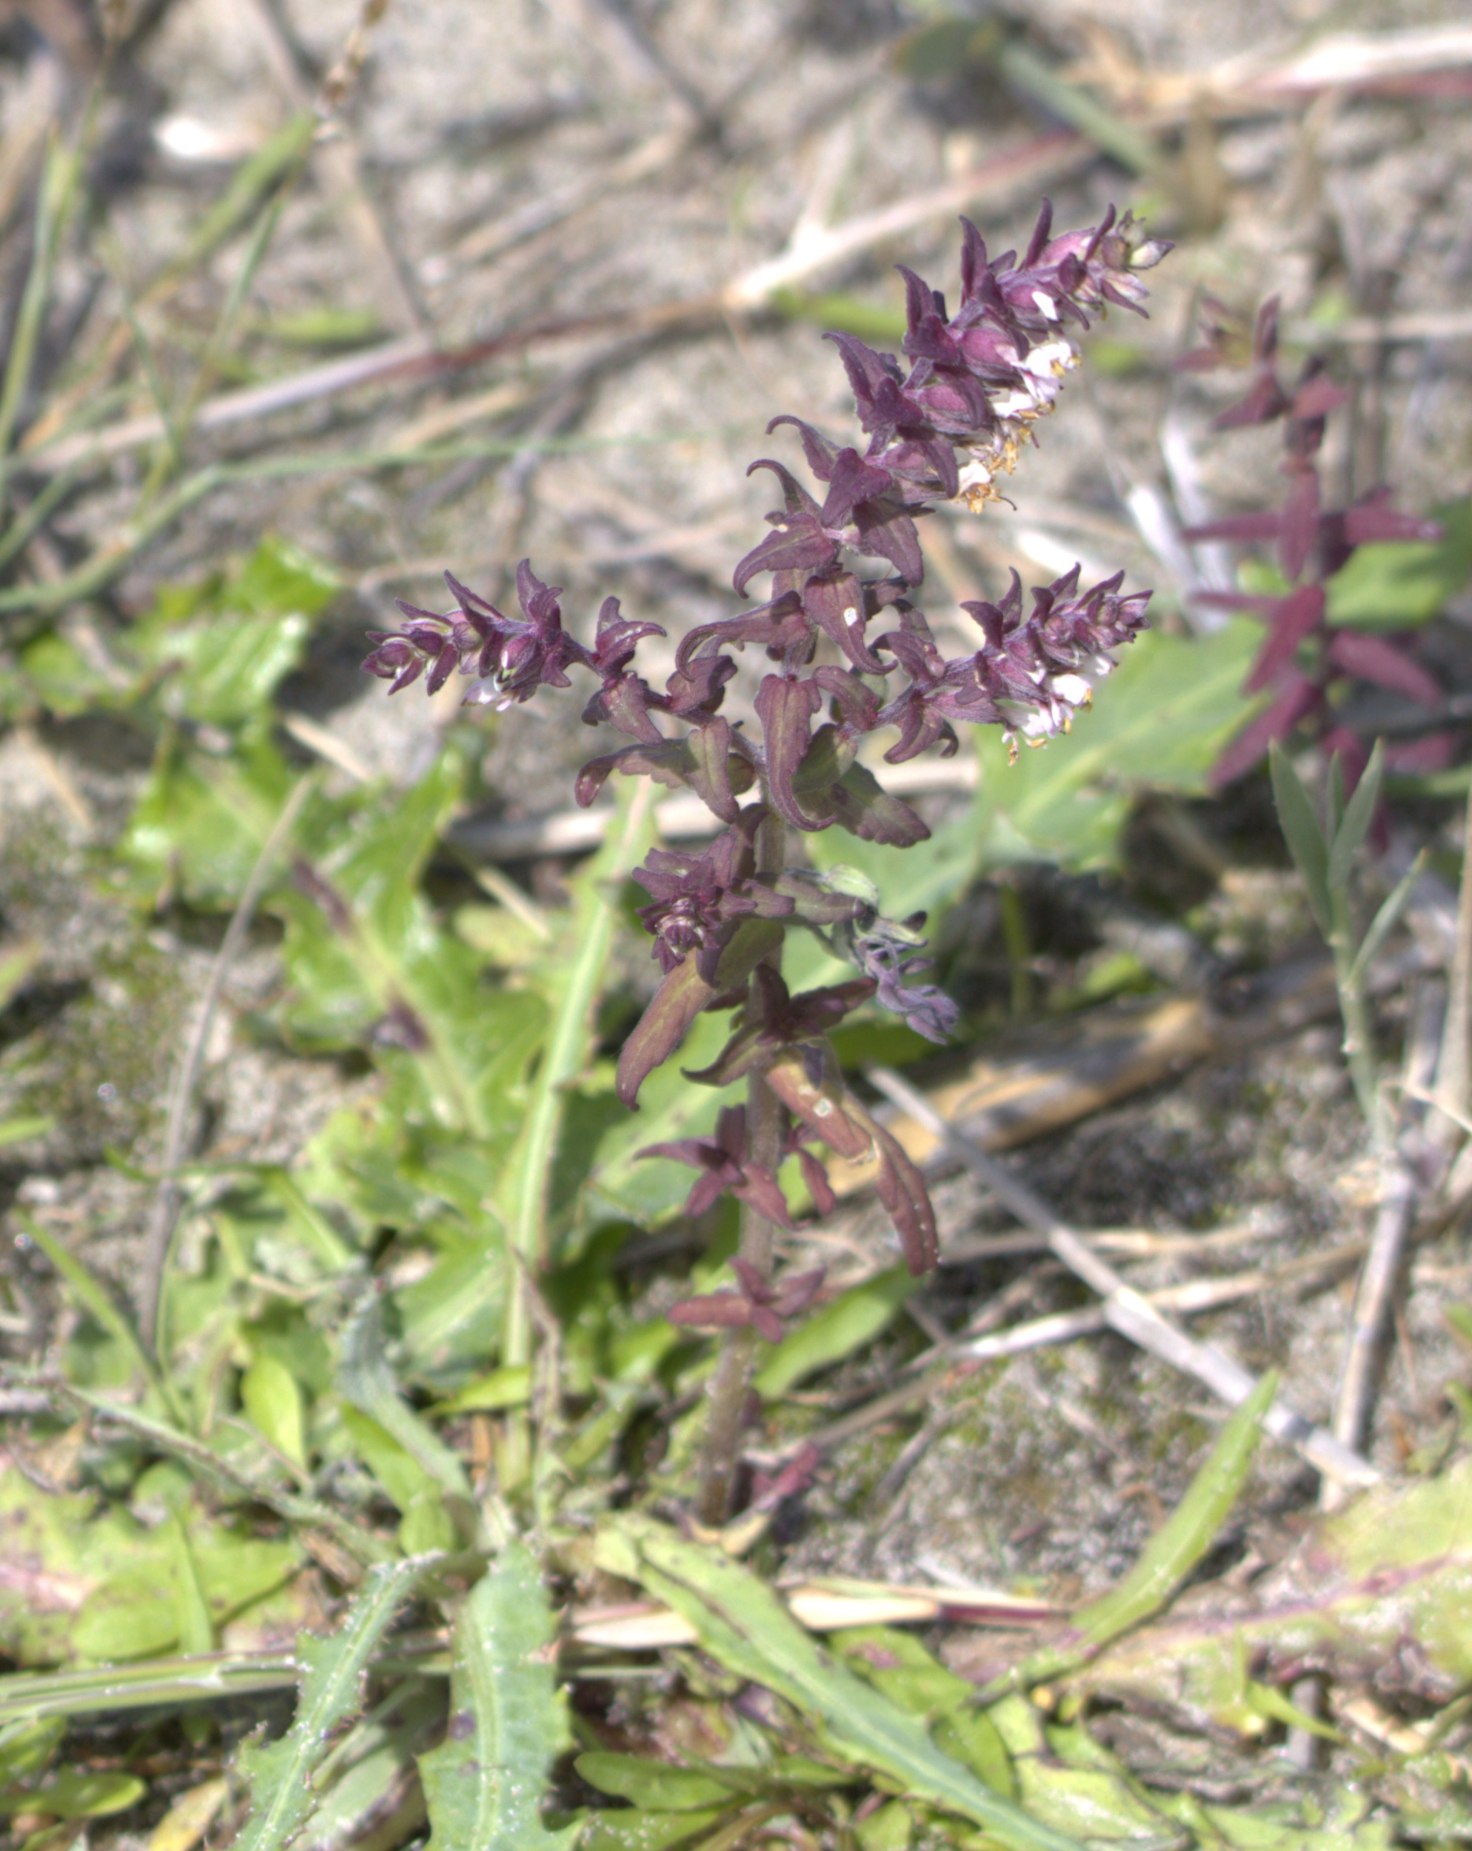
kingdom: Plantae
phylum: Tracheophyta
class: Magnoliopsida
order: Lamiales
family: Orobanchaceae
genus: Odontites
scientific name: Odontites vernus
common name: Mark-rødtop
